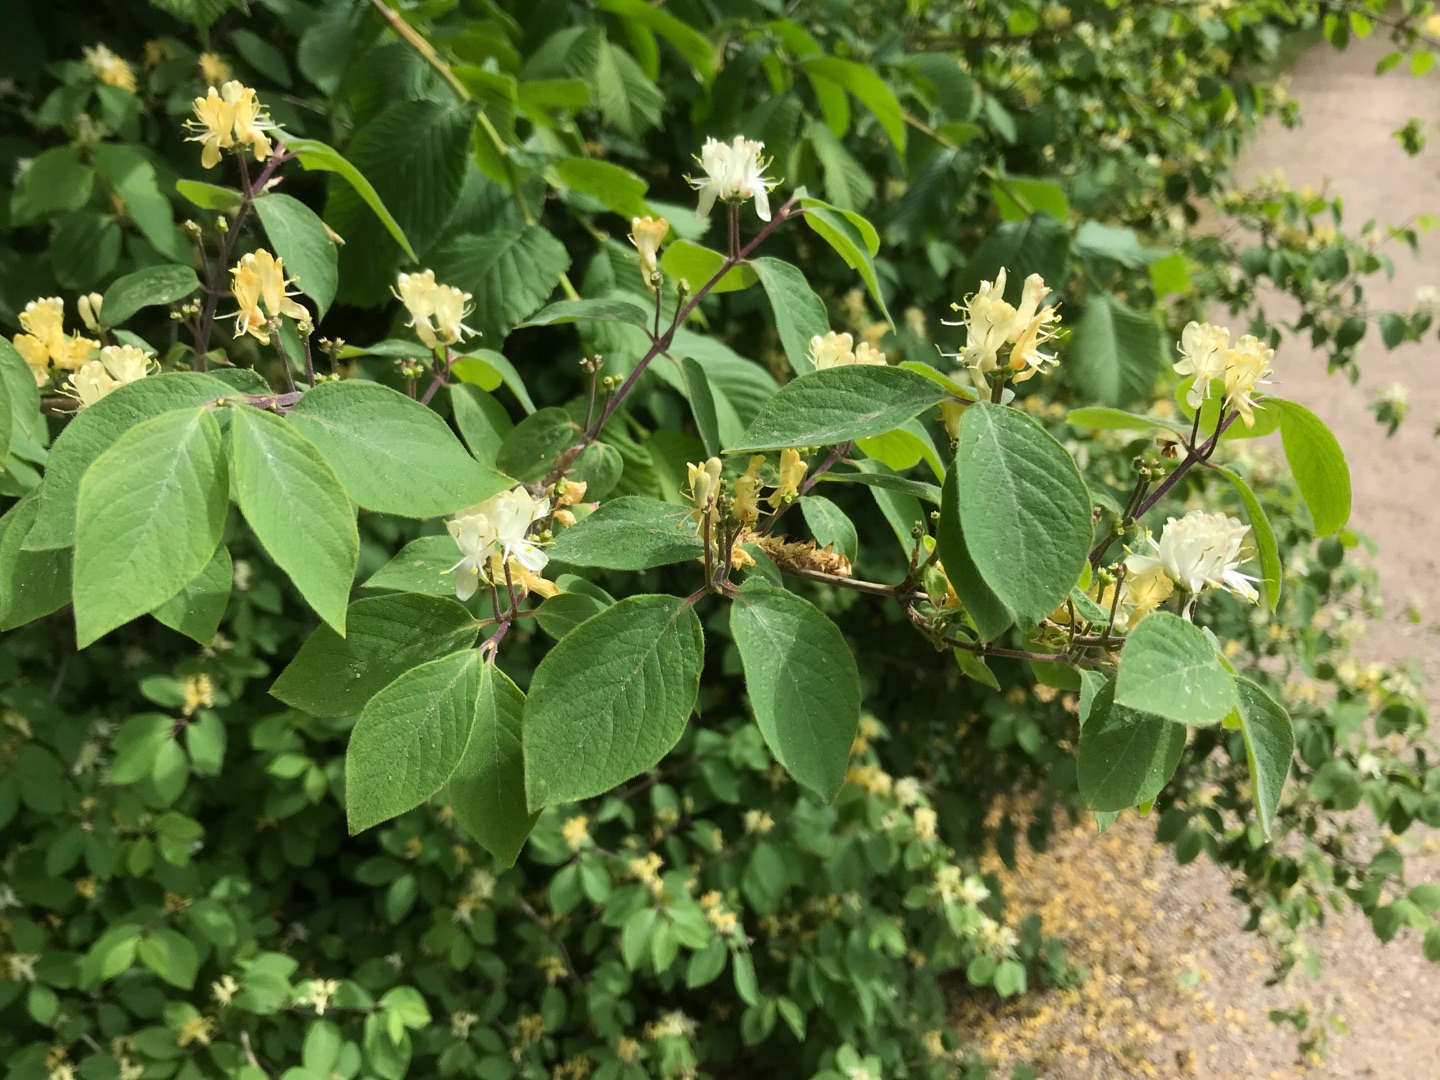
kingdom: Plantae
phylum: Tracheophyta
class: Magnoliopsida
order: Dipsacales
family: Caprifoliaceae
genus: Lonicera
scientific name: Lonicera xylosteum
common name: Dunet gedeblad
